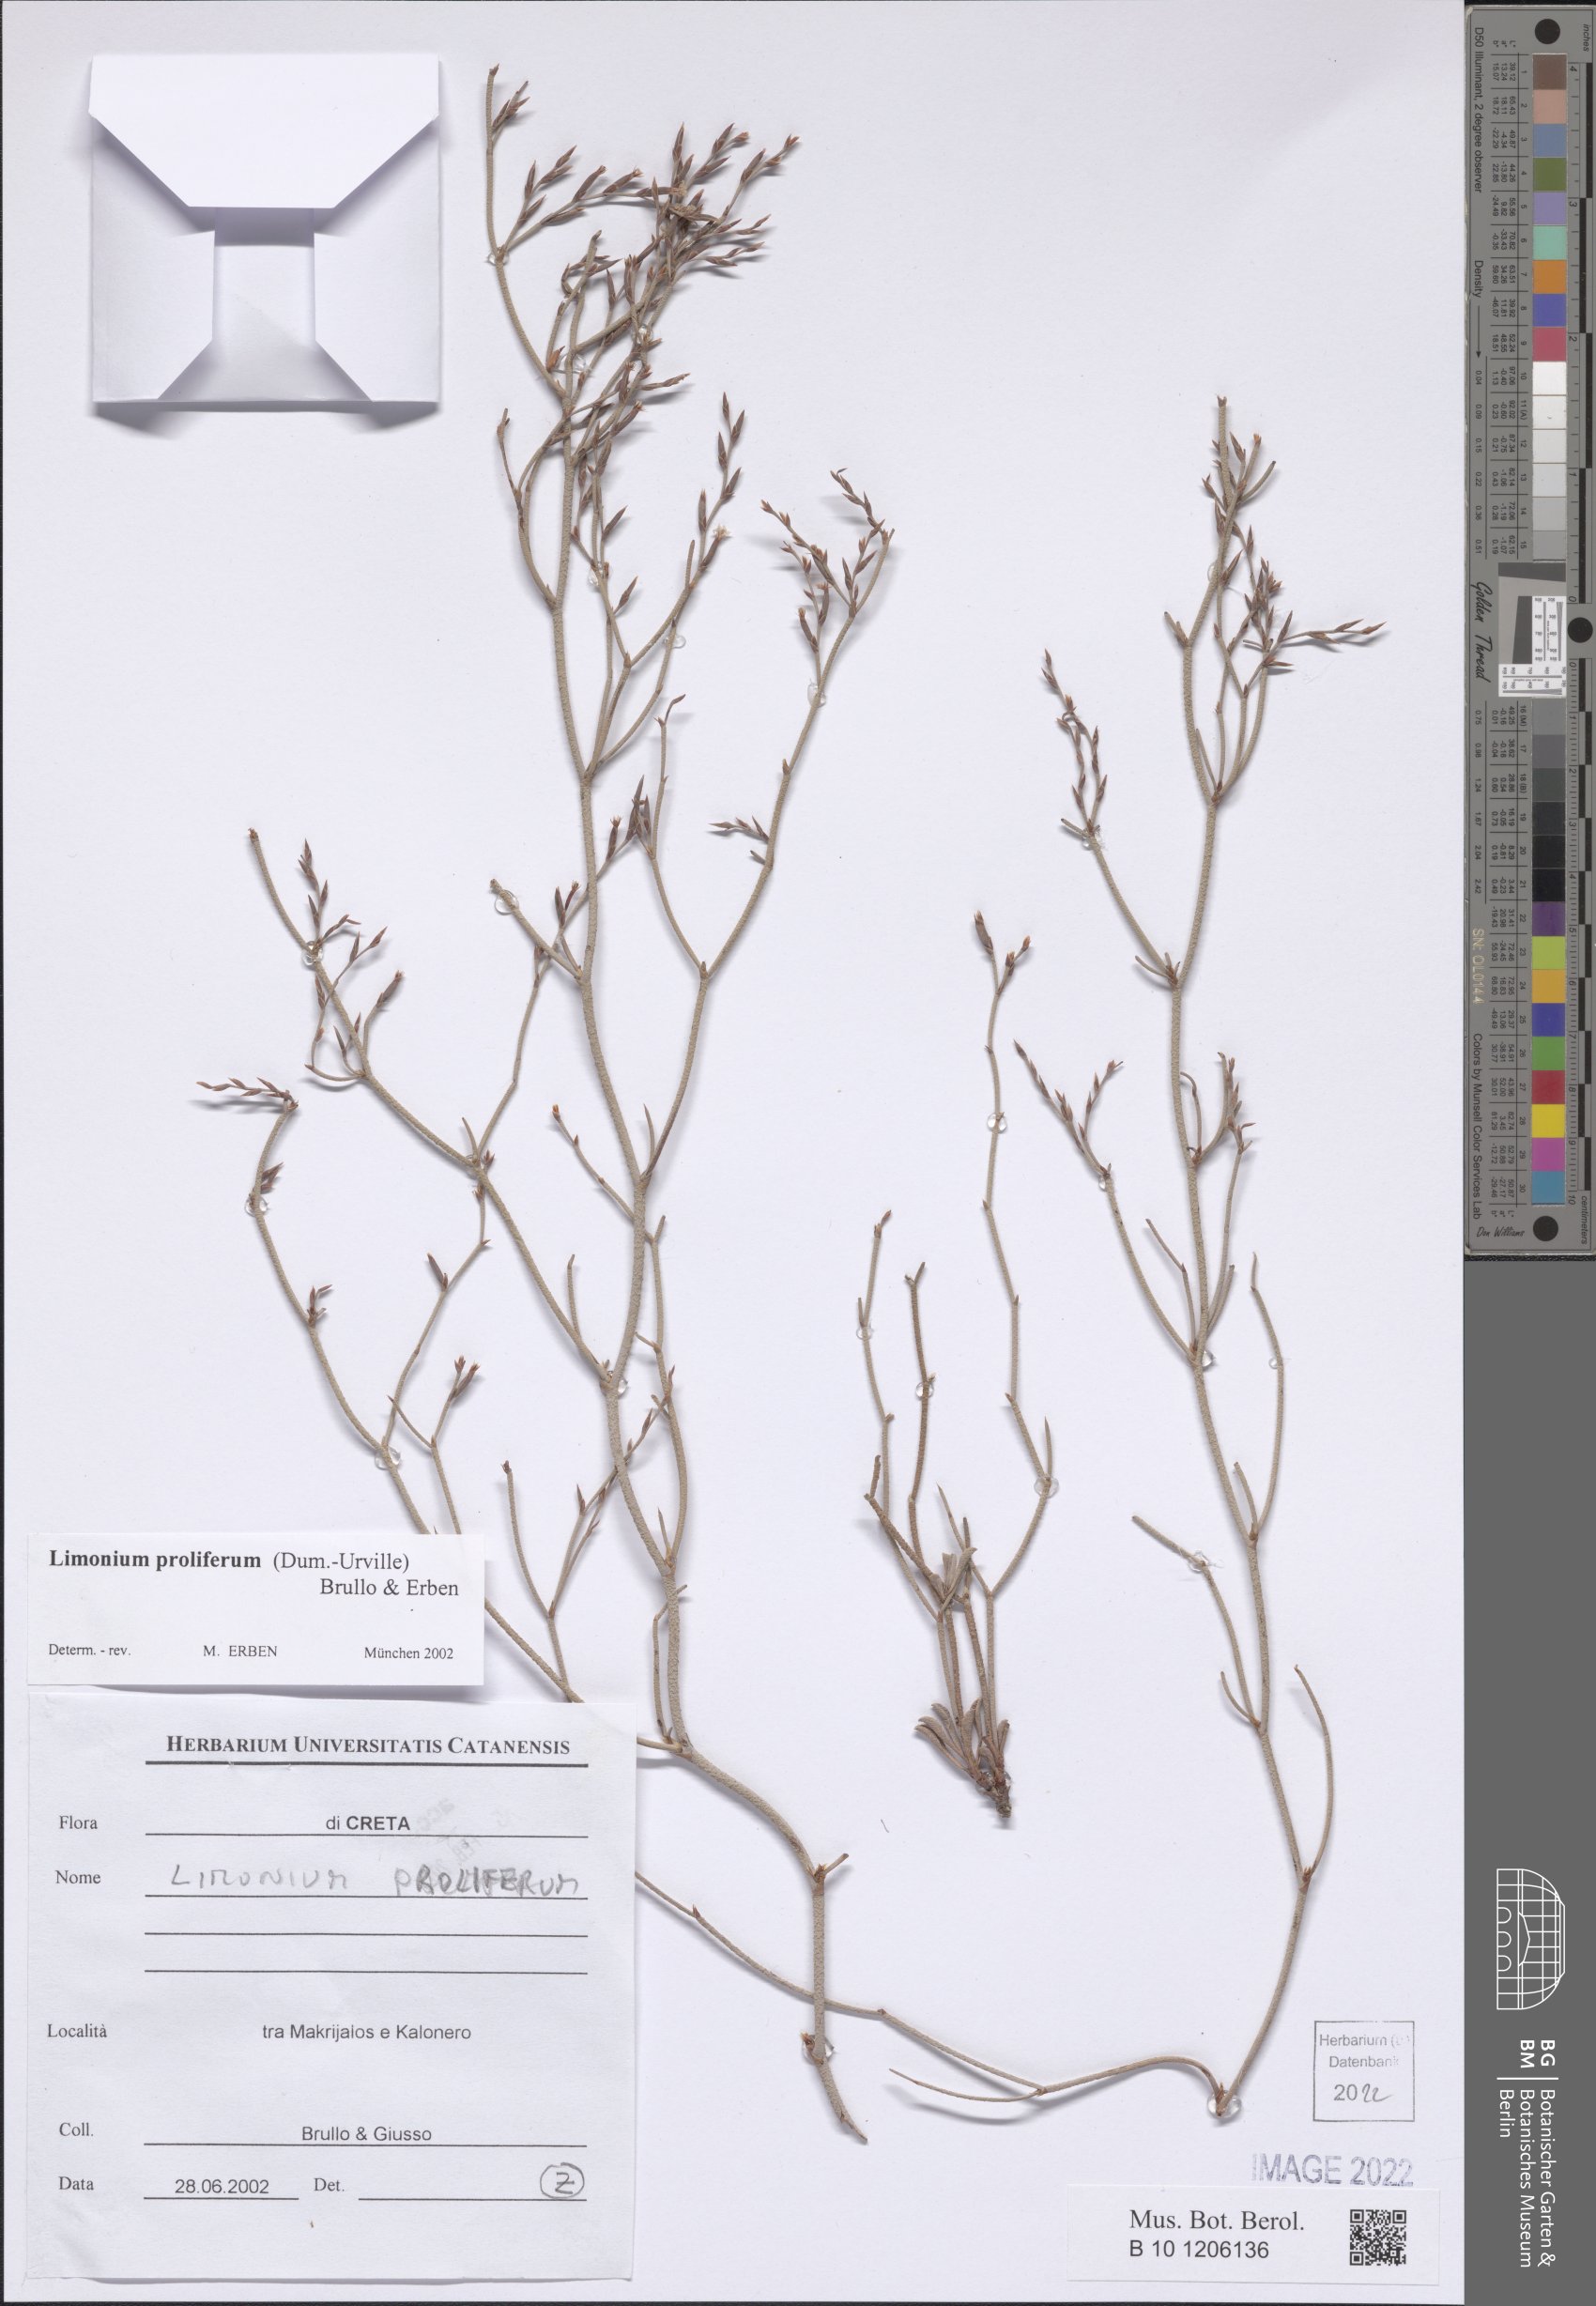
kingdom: Plantae
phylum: Tracheophyta
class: Magnoliopsida
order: Caryophyllales
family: Plumbaginaceae
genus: Limonium
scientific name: Limonium proliferum
